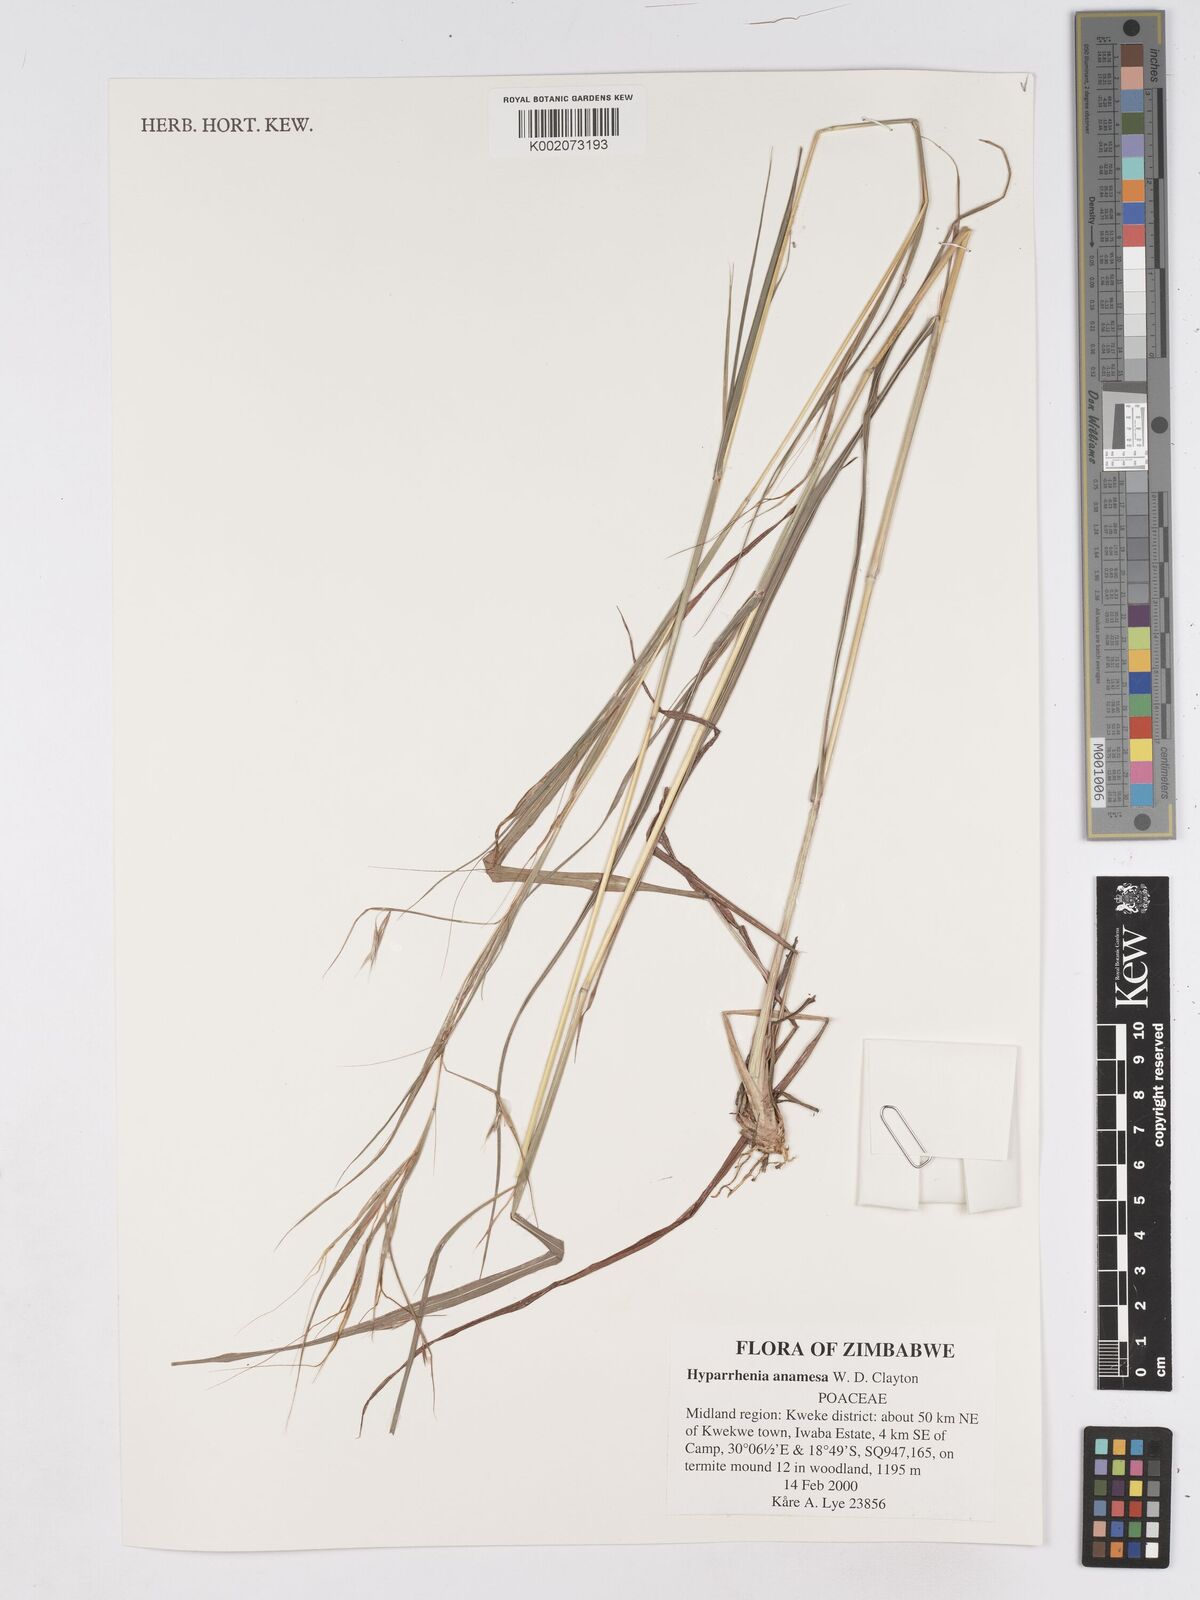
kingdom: Plantae
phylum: Tracheophyta
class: Liliopsida
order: Poales
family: Poaceae
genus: Hyparrhenia
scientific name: Hyparrhenia anamesa
